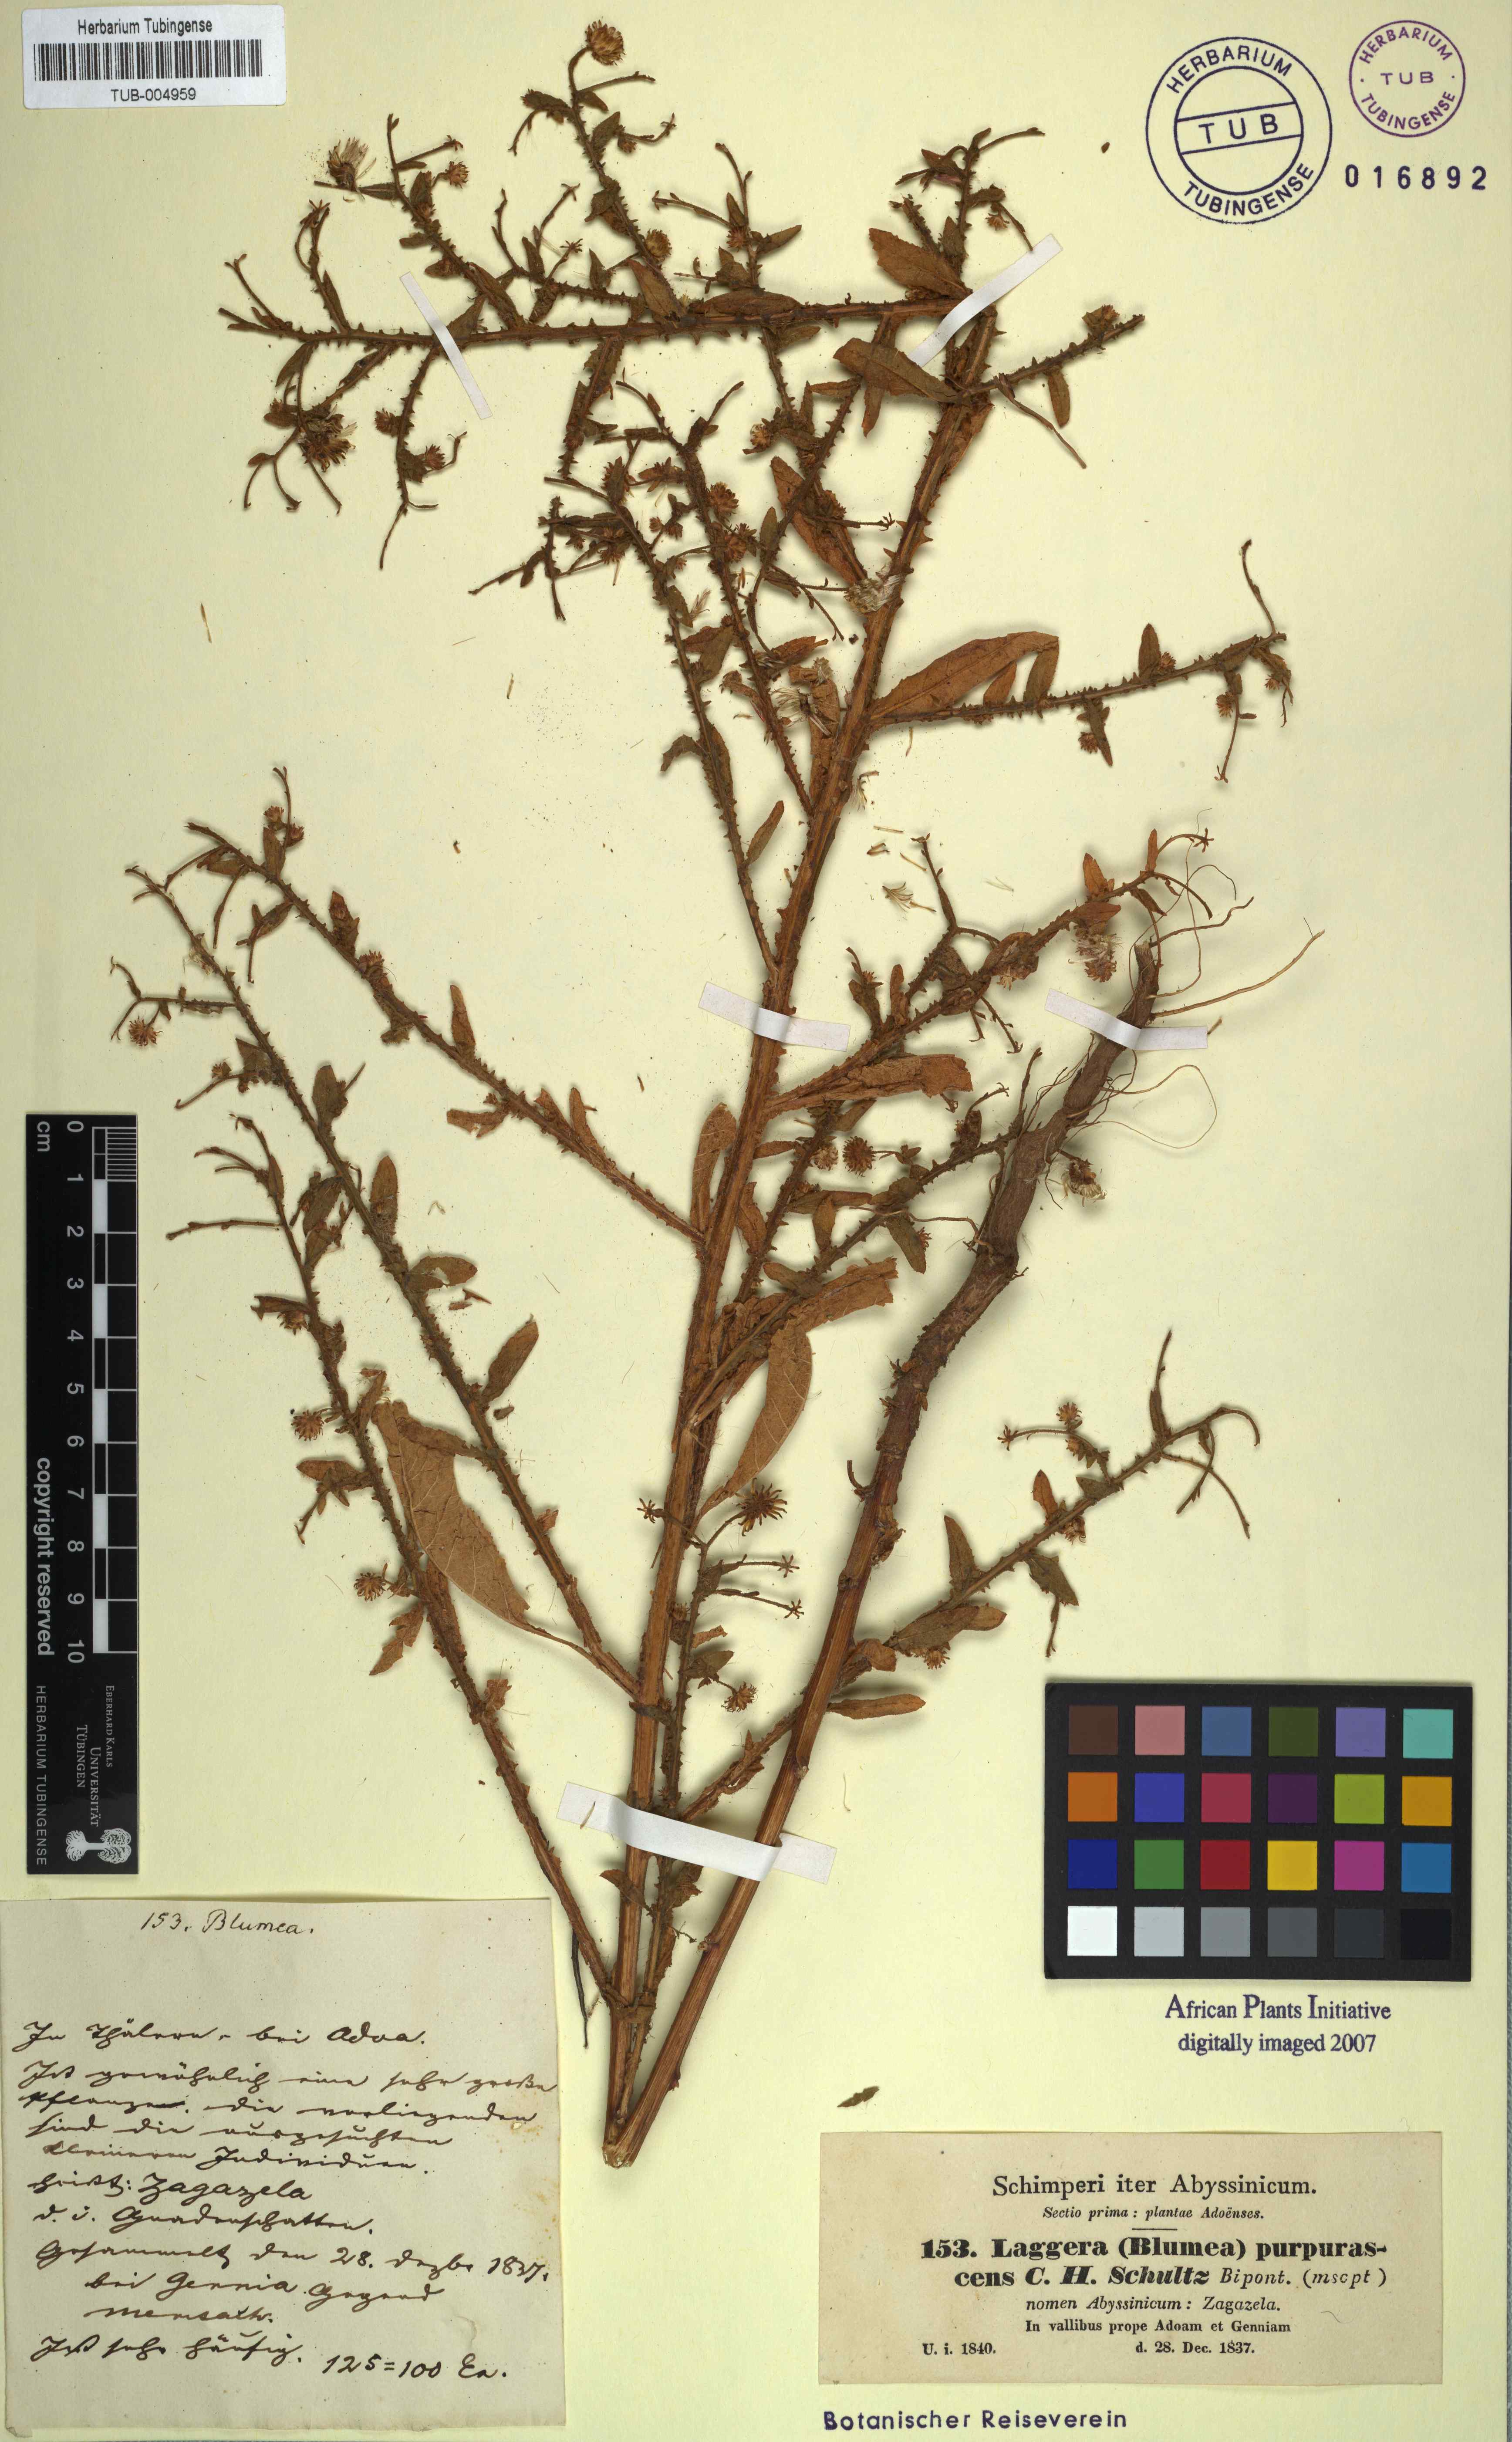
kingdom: Plantae
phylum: Tracheophyta
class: Magnoliopsida
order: Asterales
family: Asteraceae
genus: Laggera
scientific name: Laggera crispata
